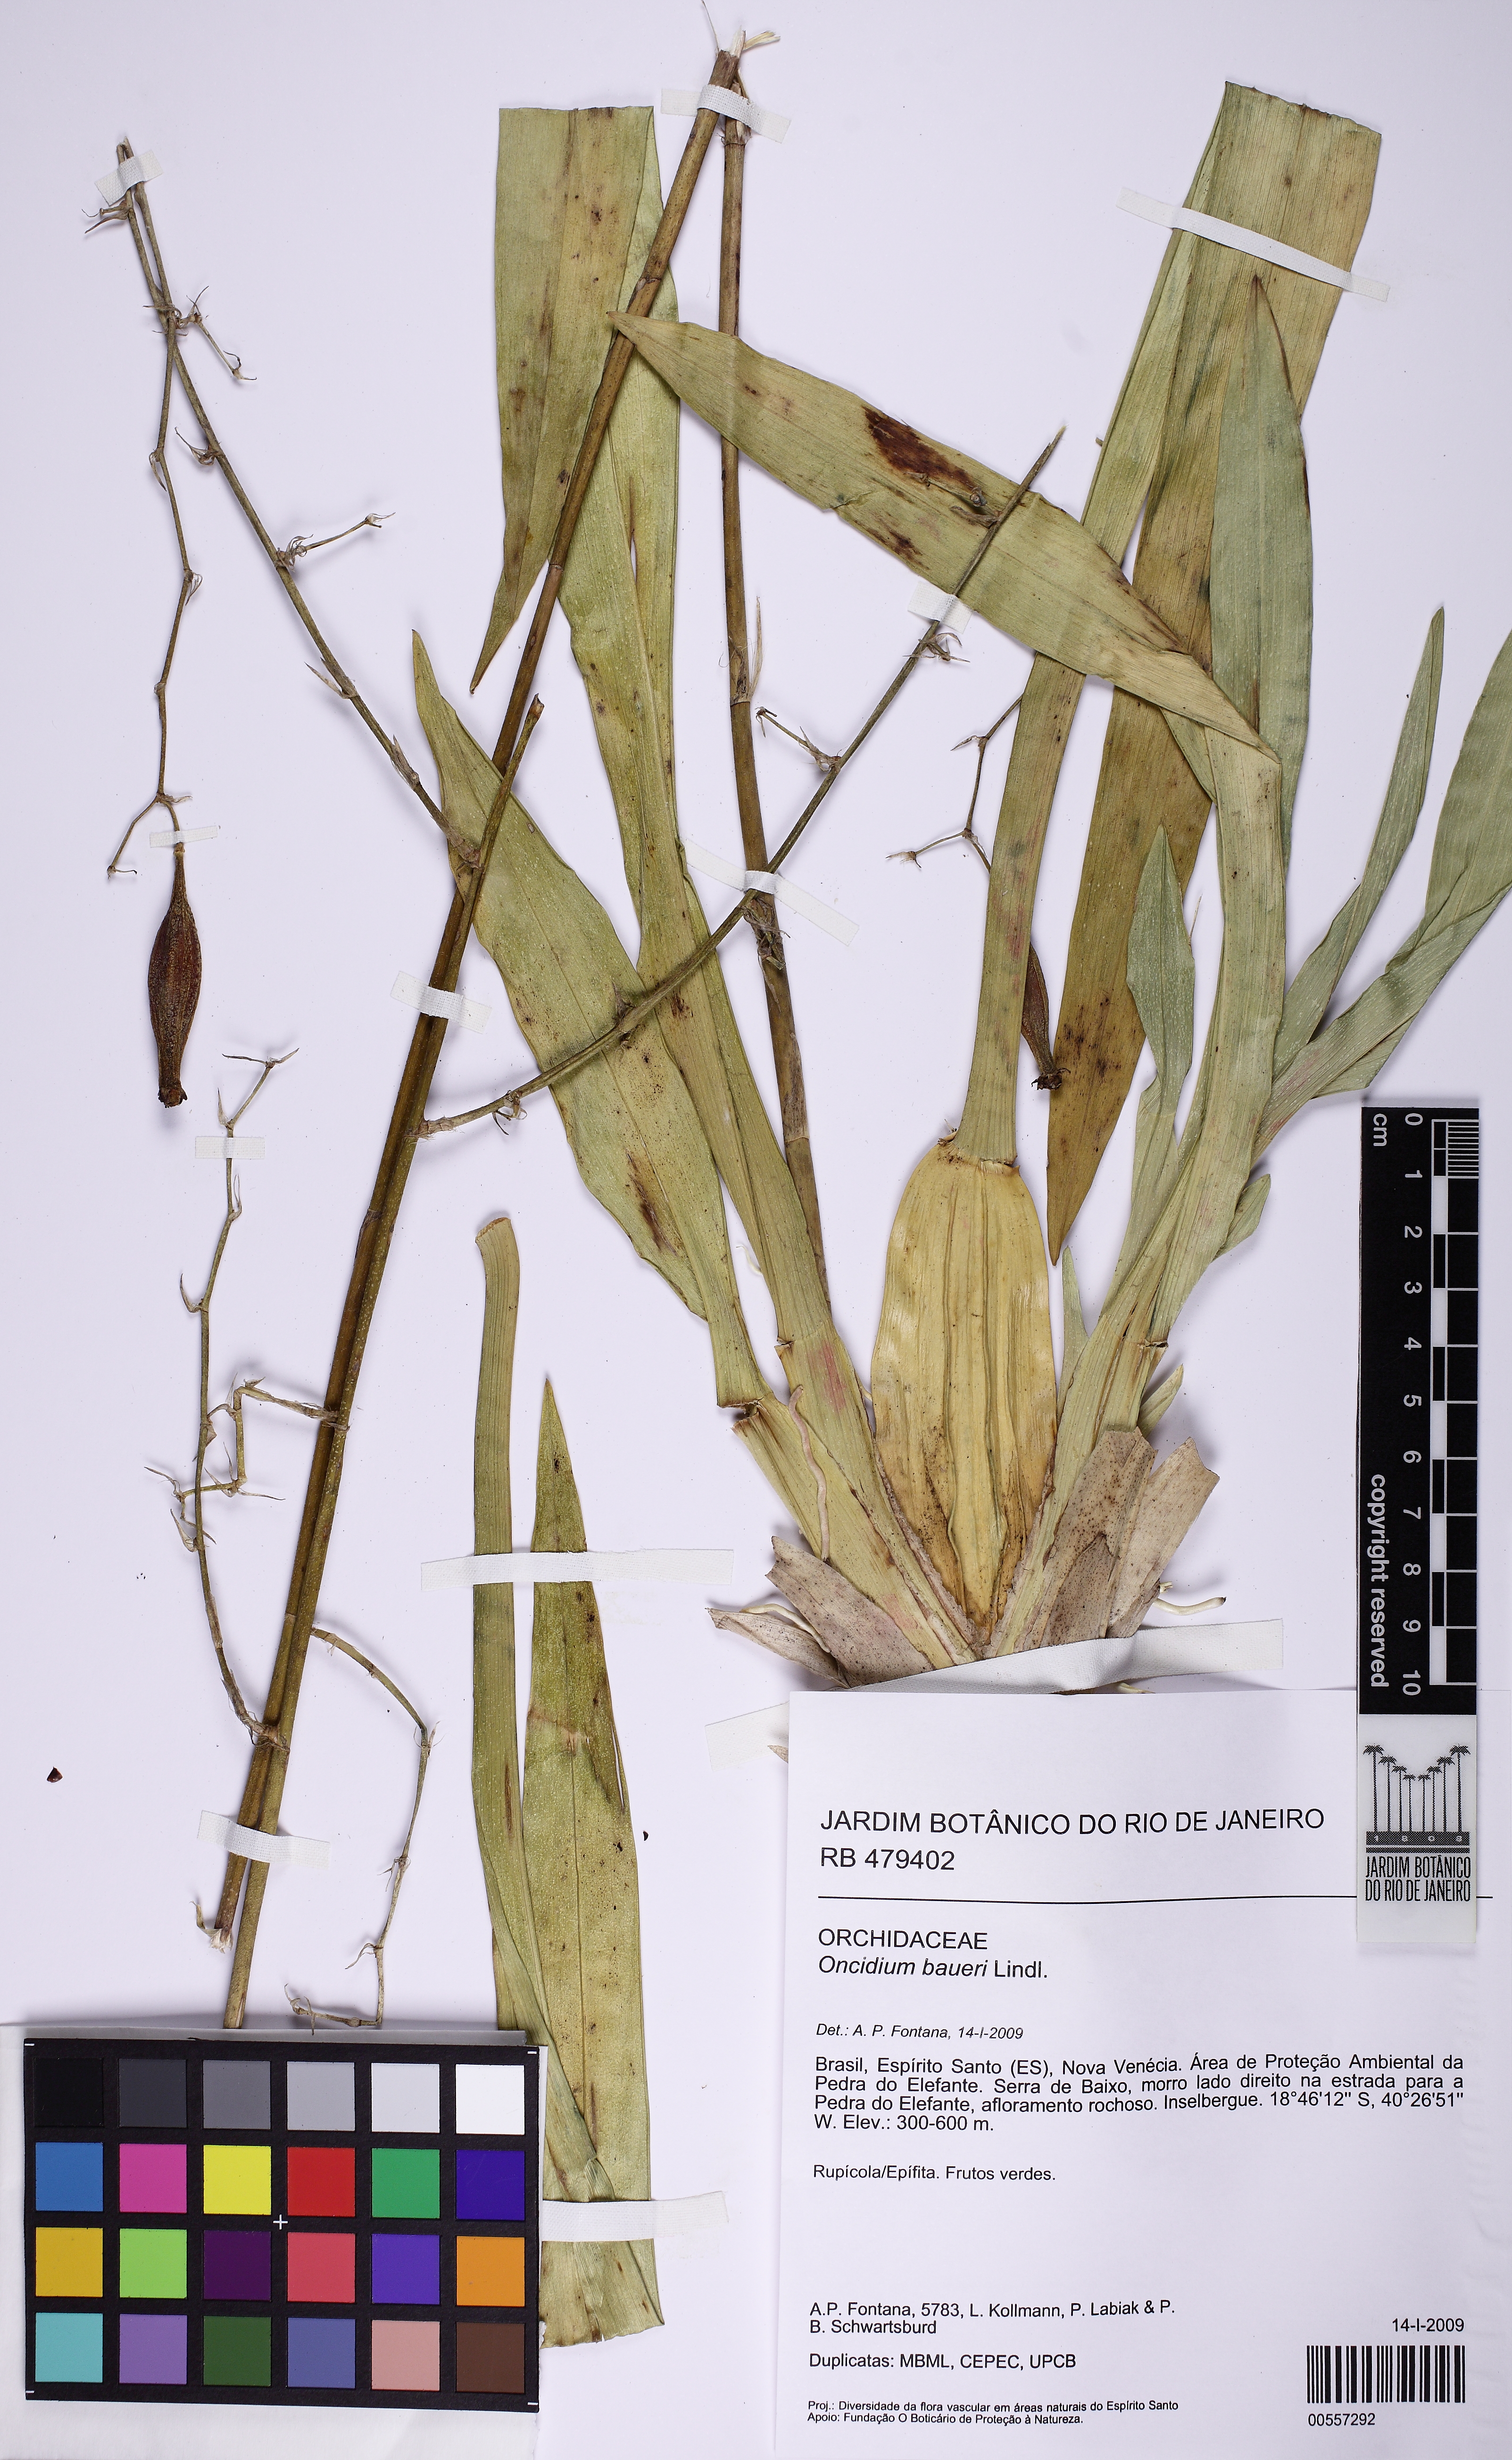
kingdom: Plantae
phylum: Tracheophyta
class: Liliopsida
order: Asparagales
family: Orchidaceae
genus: Oncidium
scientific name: Oncidium baueri
